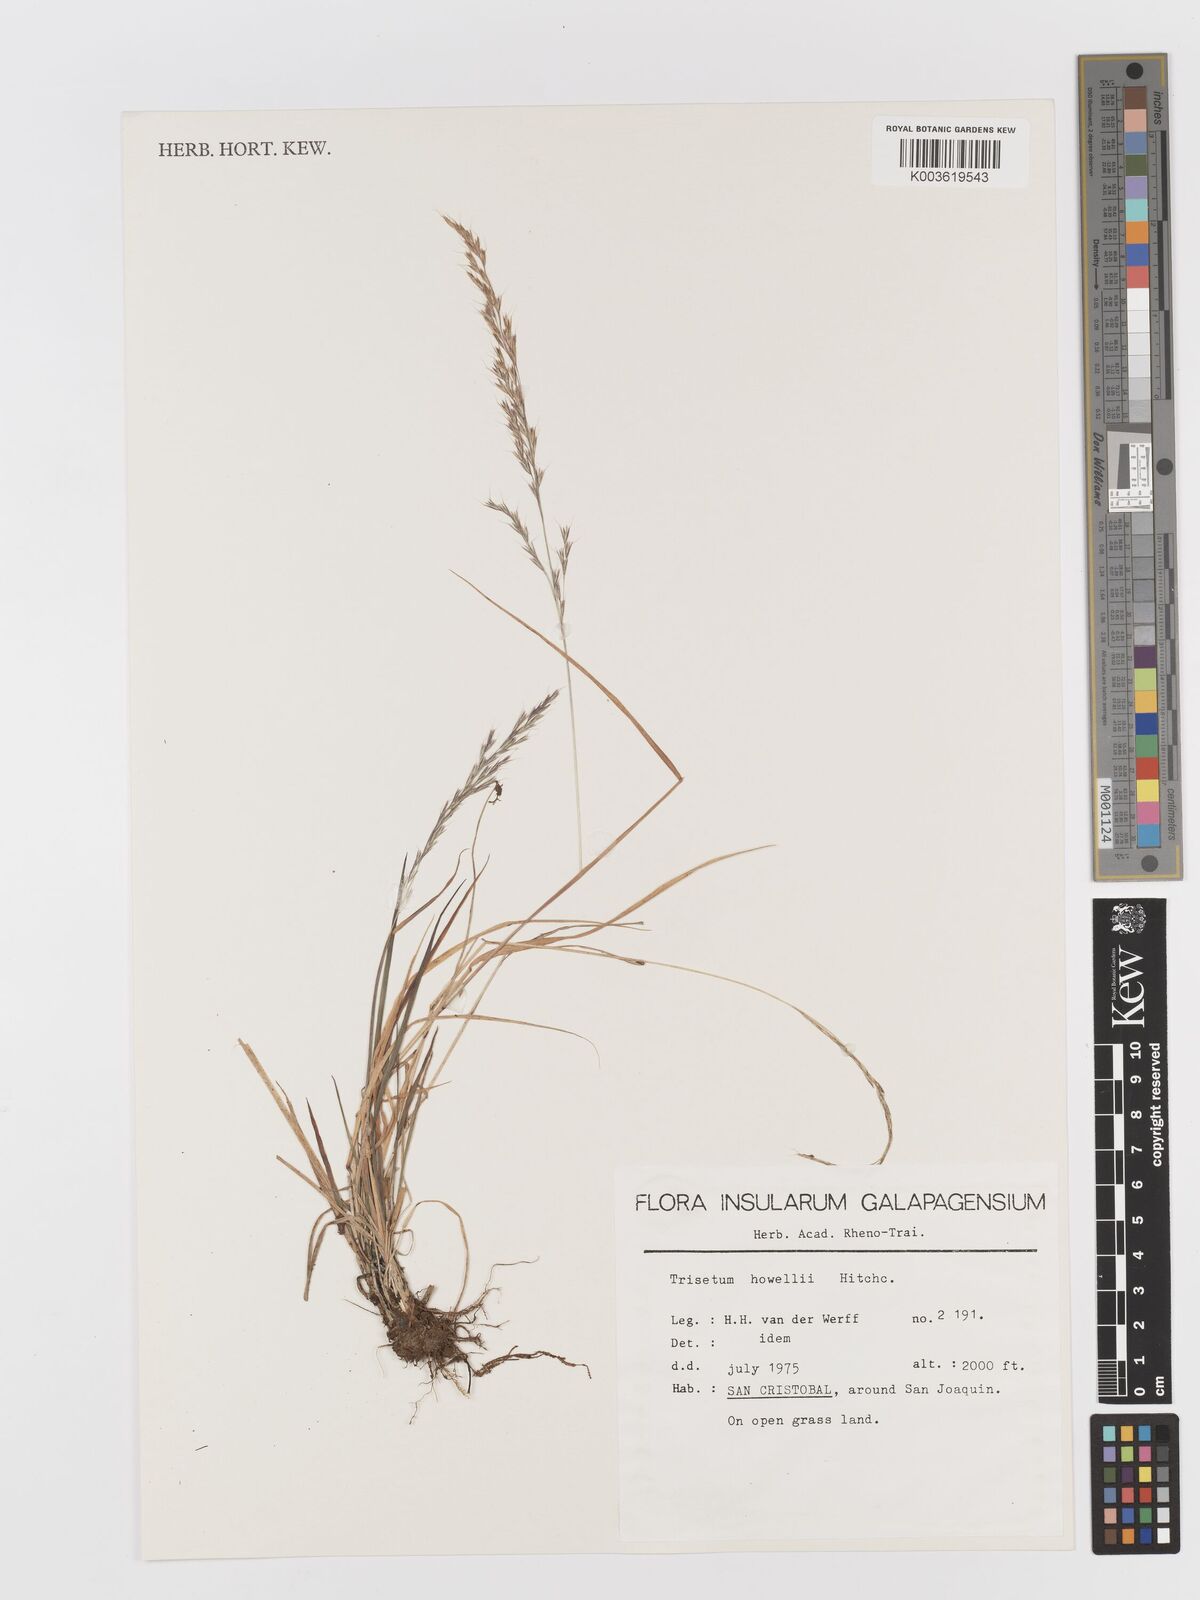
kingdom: Plantae
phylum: Tracheophyta
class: Liliopsida
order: Poales
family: Poaceae
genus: Peyritschia
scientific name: Peyritschia howellii
